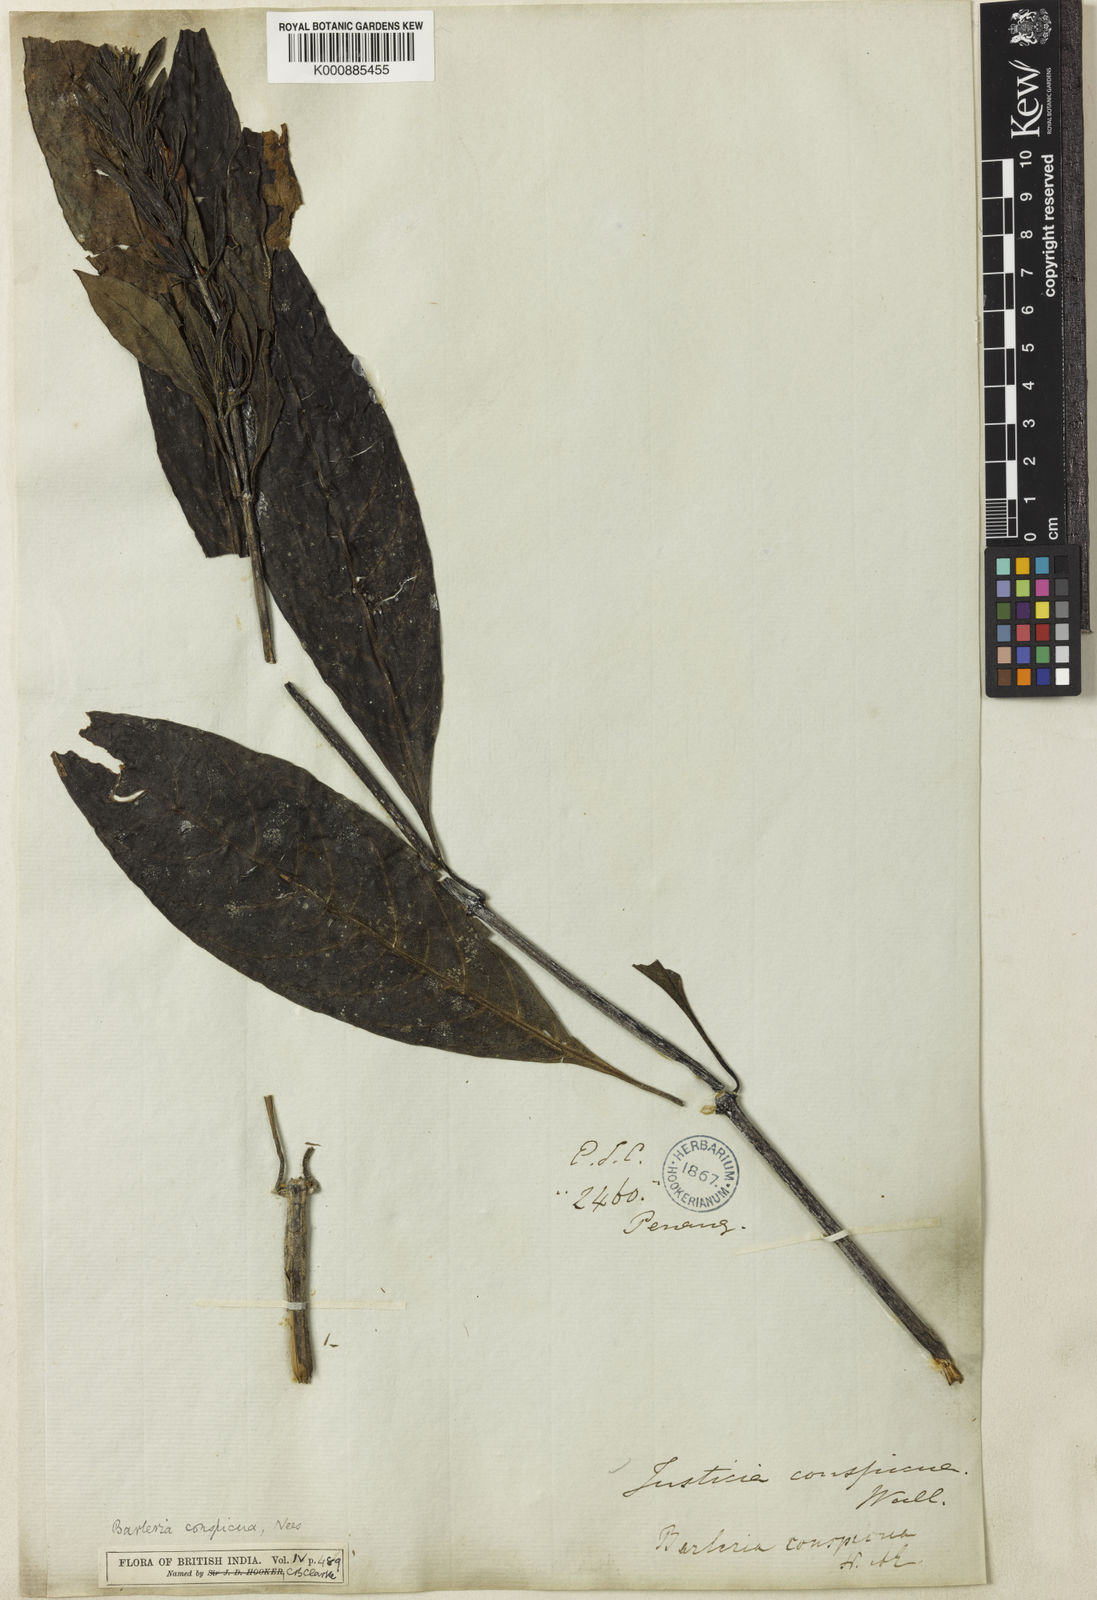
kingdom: Plantae
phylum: Tracheophyta
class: Magnoliopsida
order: Lamiales
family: Acanthaceae
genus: Barleria
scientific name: Barleria conspicua
